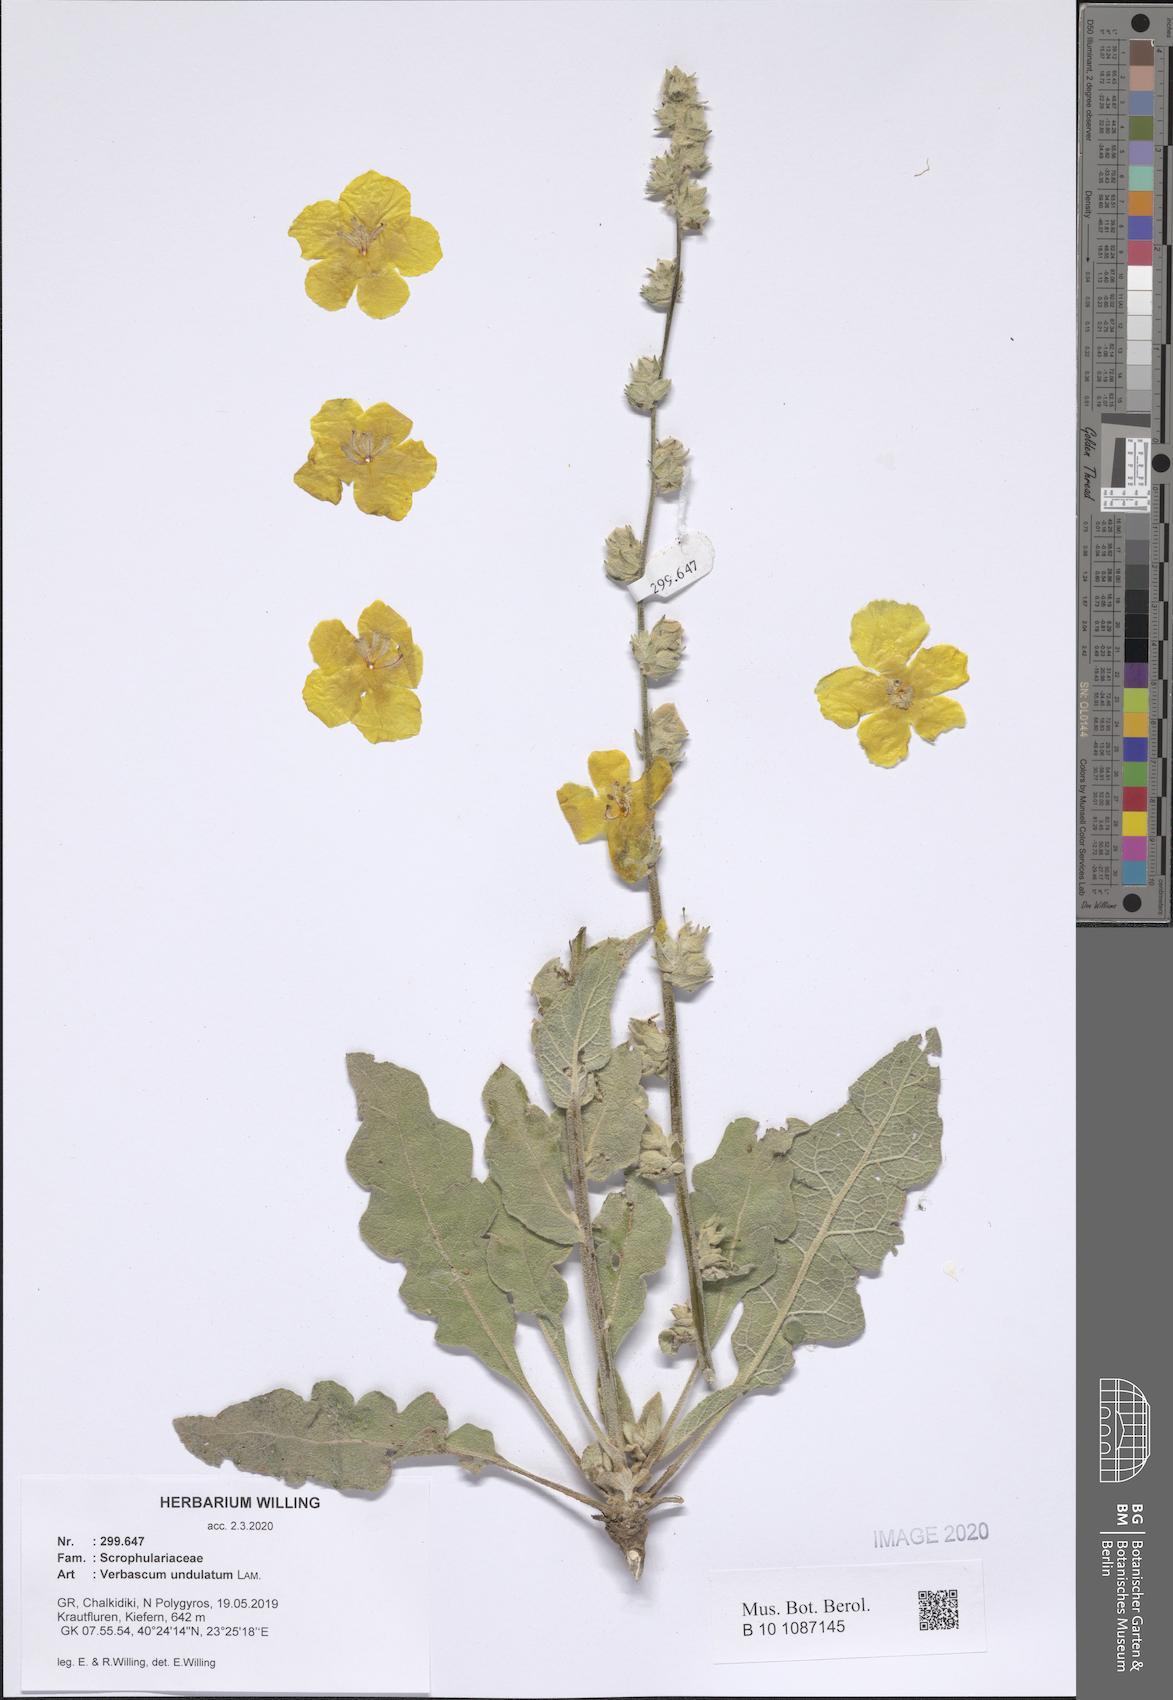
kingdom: Plantae
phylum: Tracheophyta
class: Magnoliopsida
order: Lamiales
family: Scrophulariaceae
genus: Verbascum
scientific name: Verbascum undulatum
